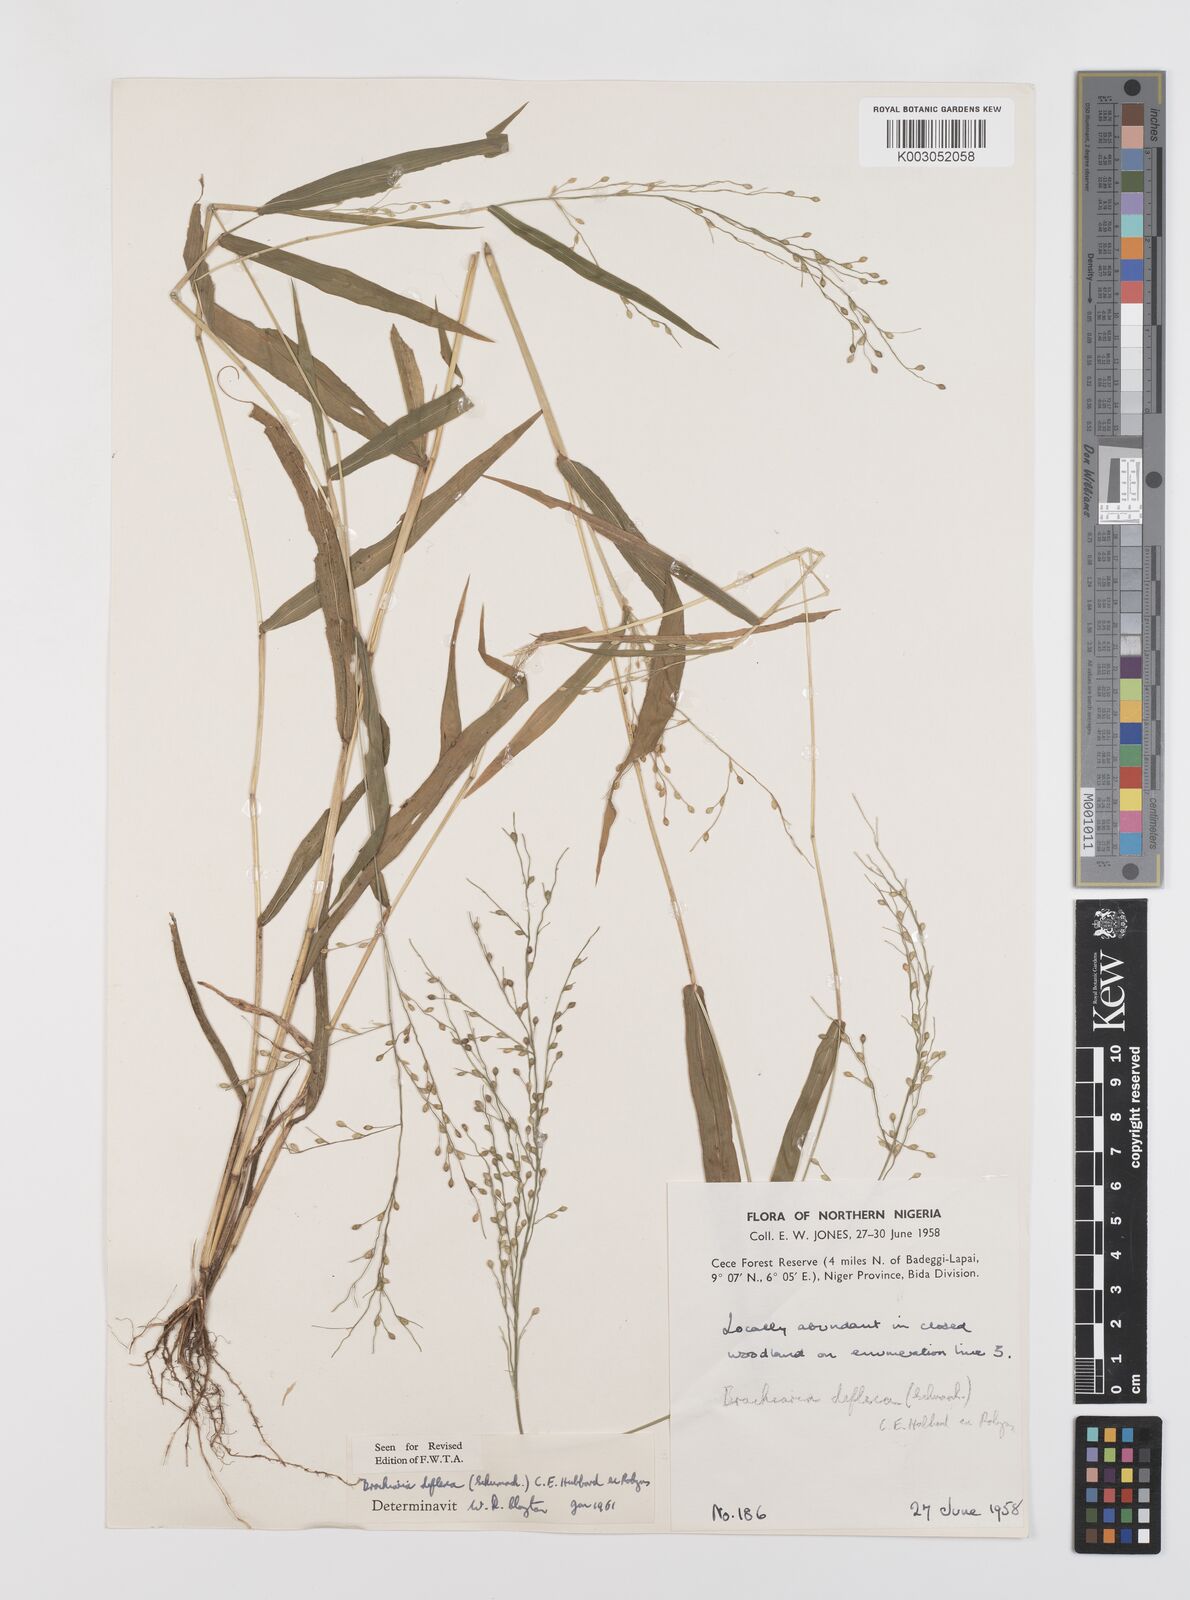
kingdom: Plantae
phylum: Tracheophyta
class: Liliopsida
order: Poales
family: Poaceae
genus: Urochloa
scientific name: Urochloa deflexa
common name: Guinea millet
